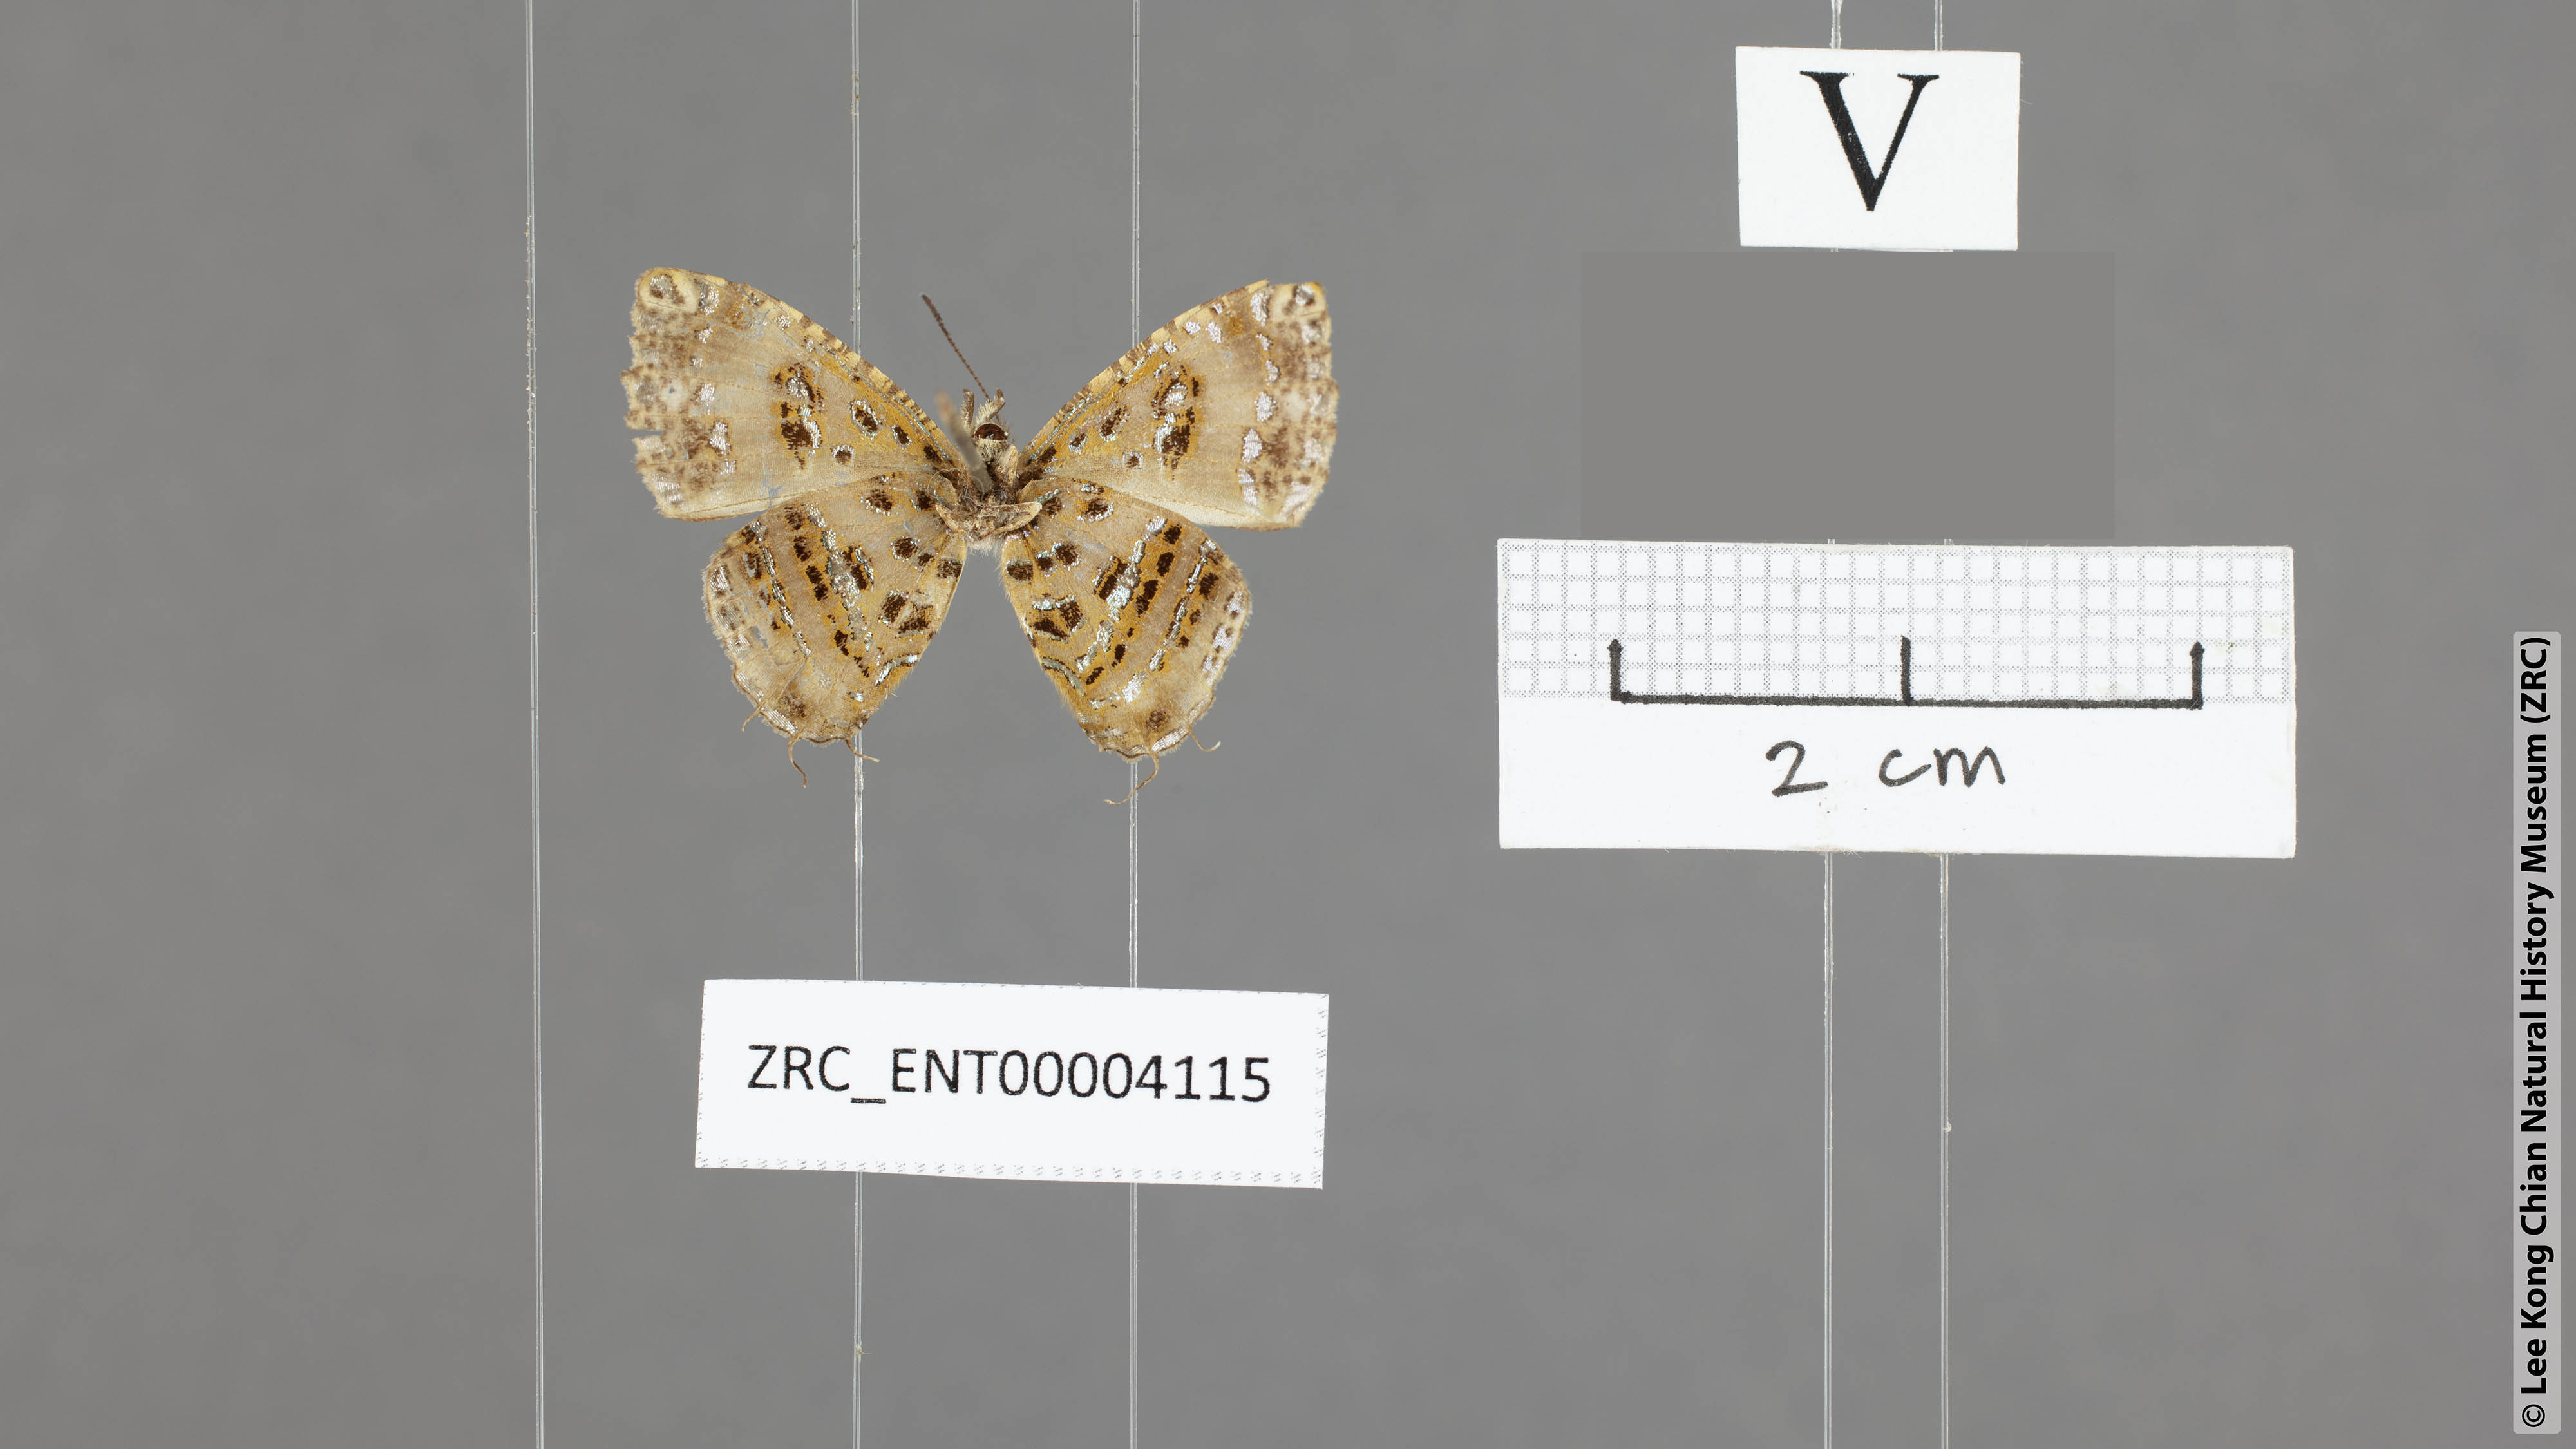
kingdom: Animalia
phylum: Arthropoda
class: Insecta
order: Lepidoptera
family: Lycaenidae
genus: Catapaecilma
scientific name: Catapaecilma elegans
